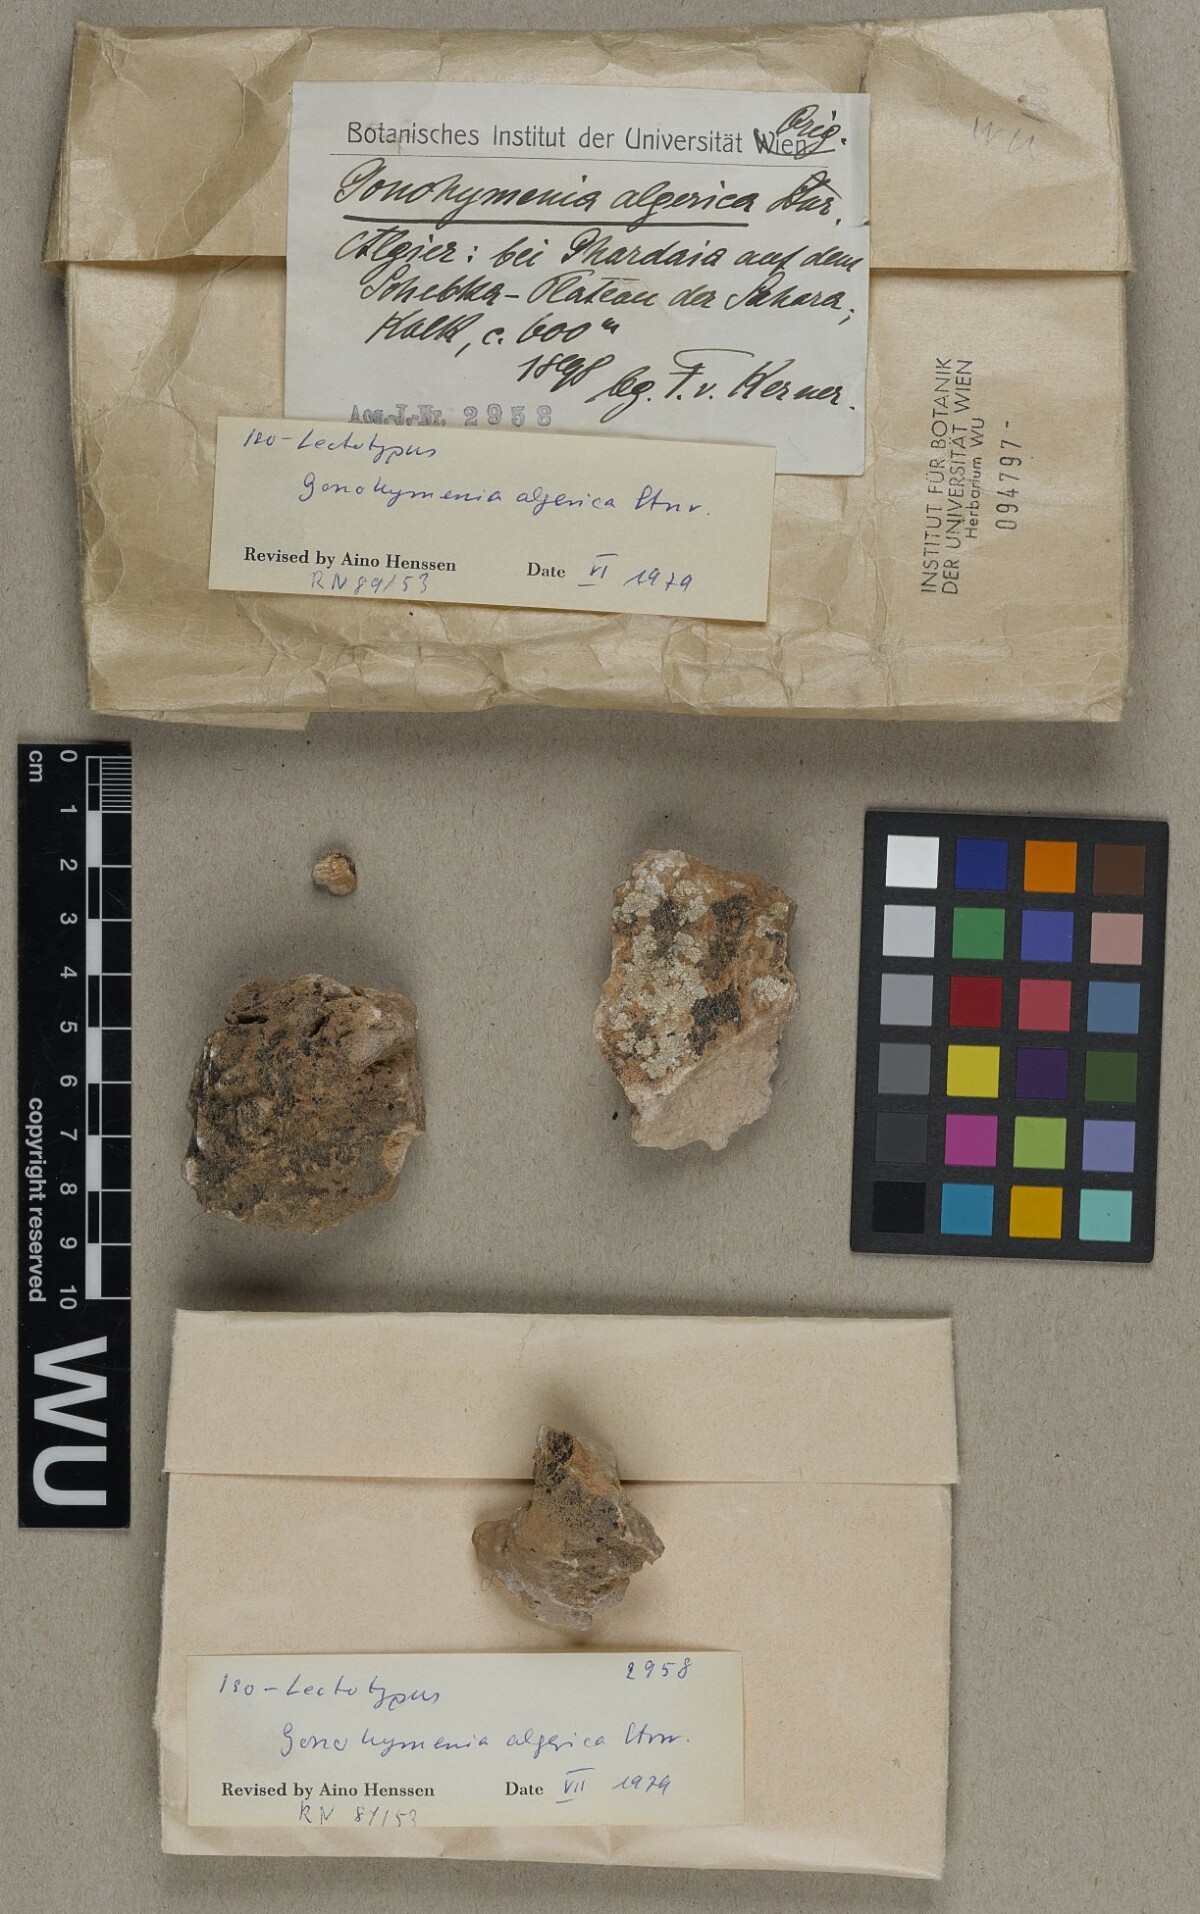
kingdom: Fungi
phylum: Ascomycota
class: Lichinomycetes
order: Lichinales
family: Lichinaceae
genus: Lichinella
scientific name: Lichinella algerica
